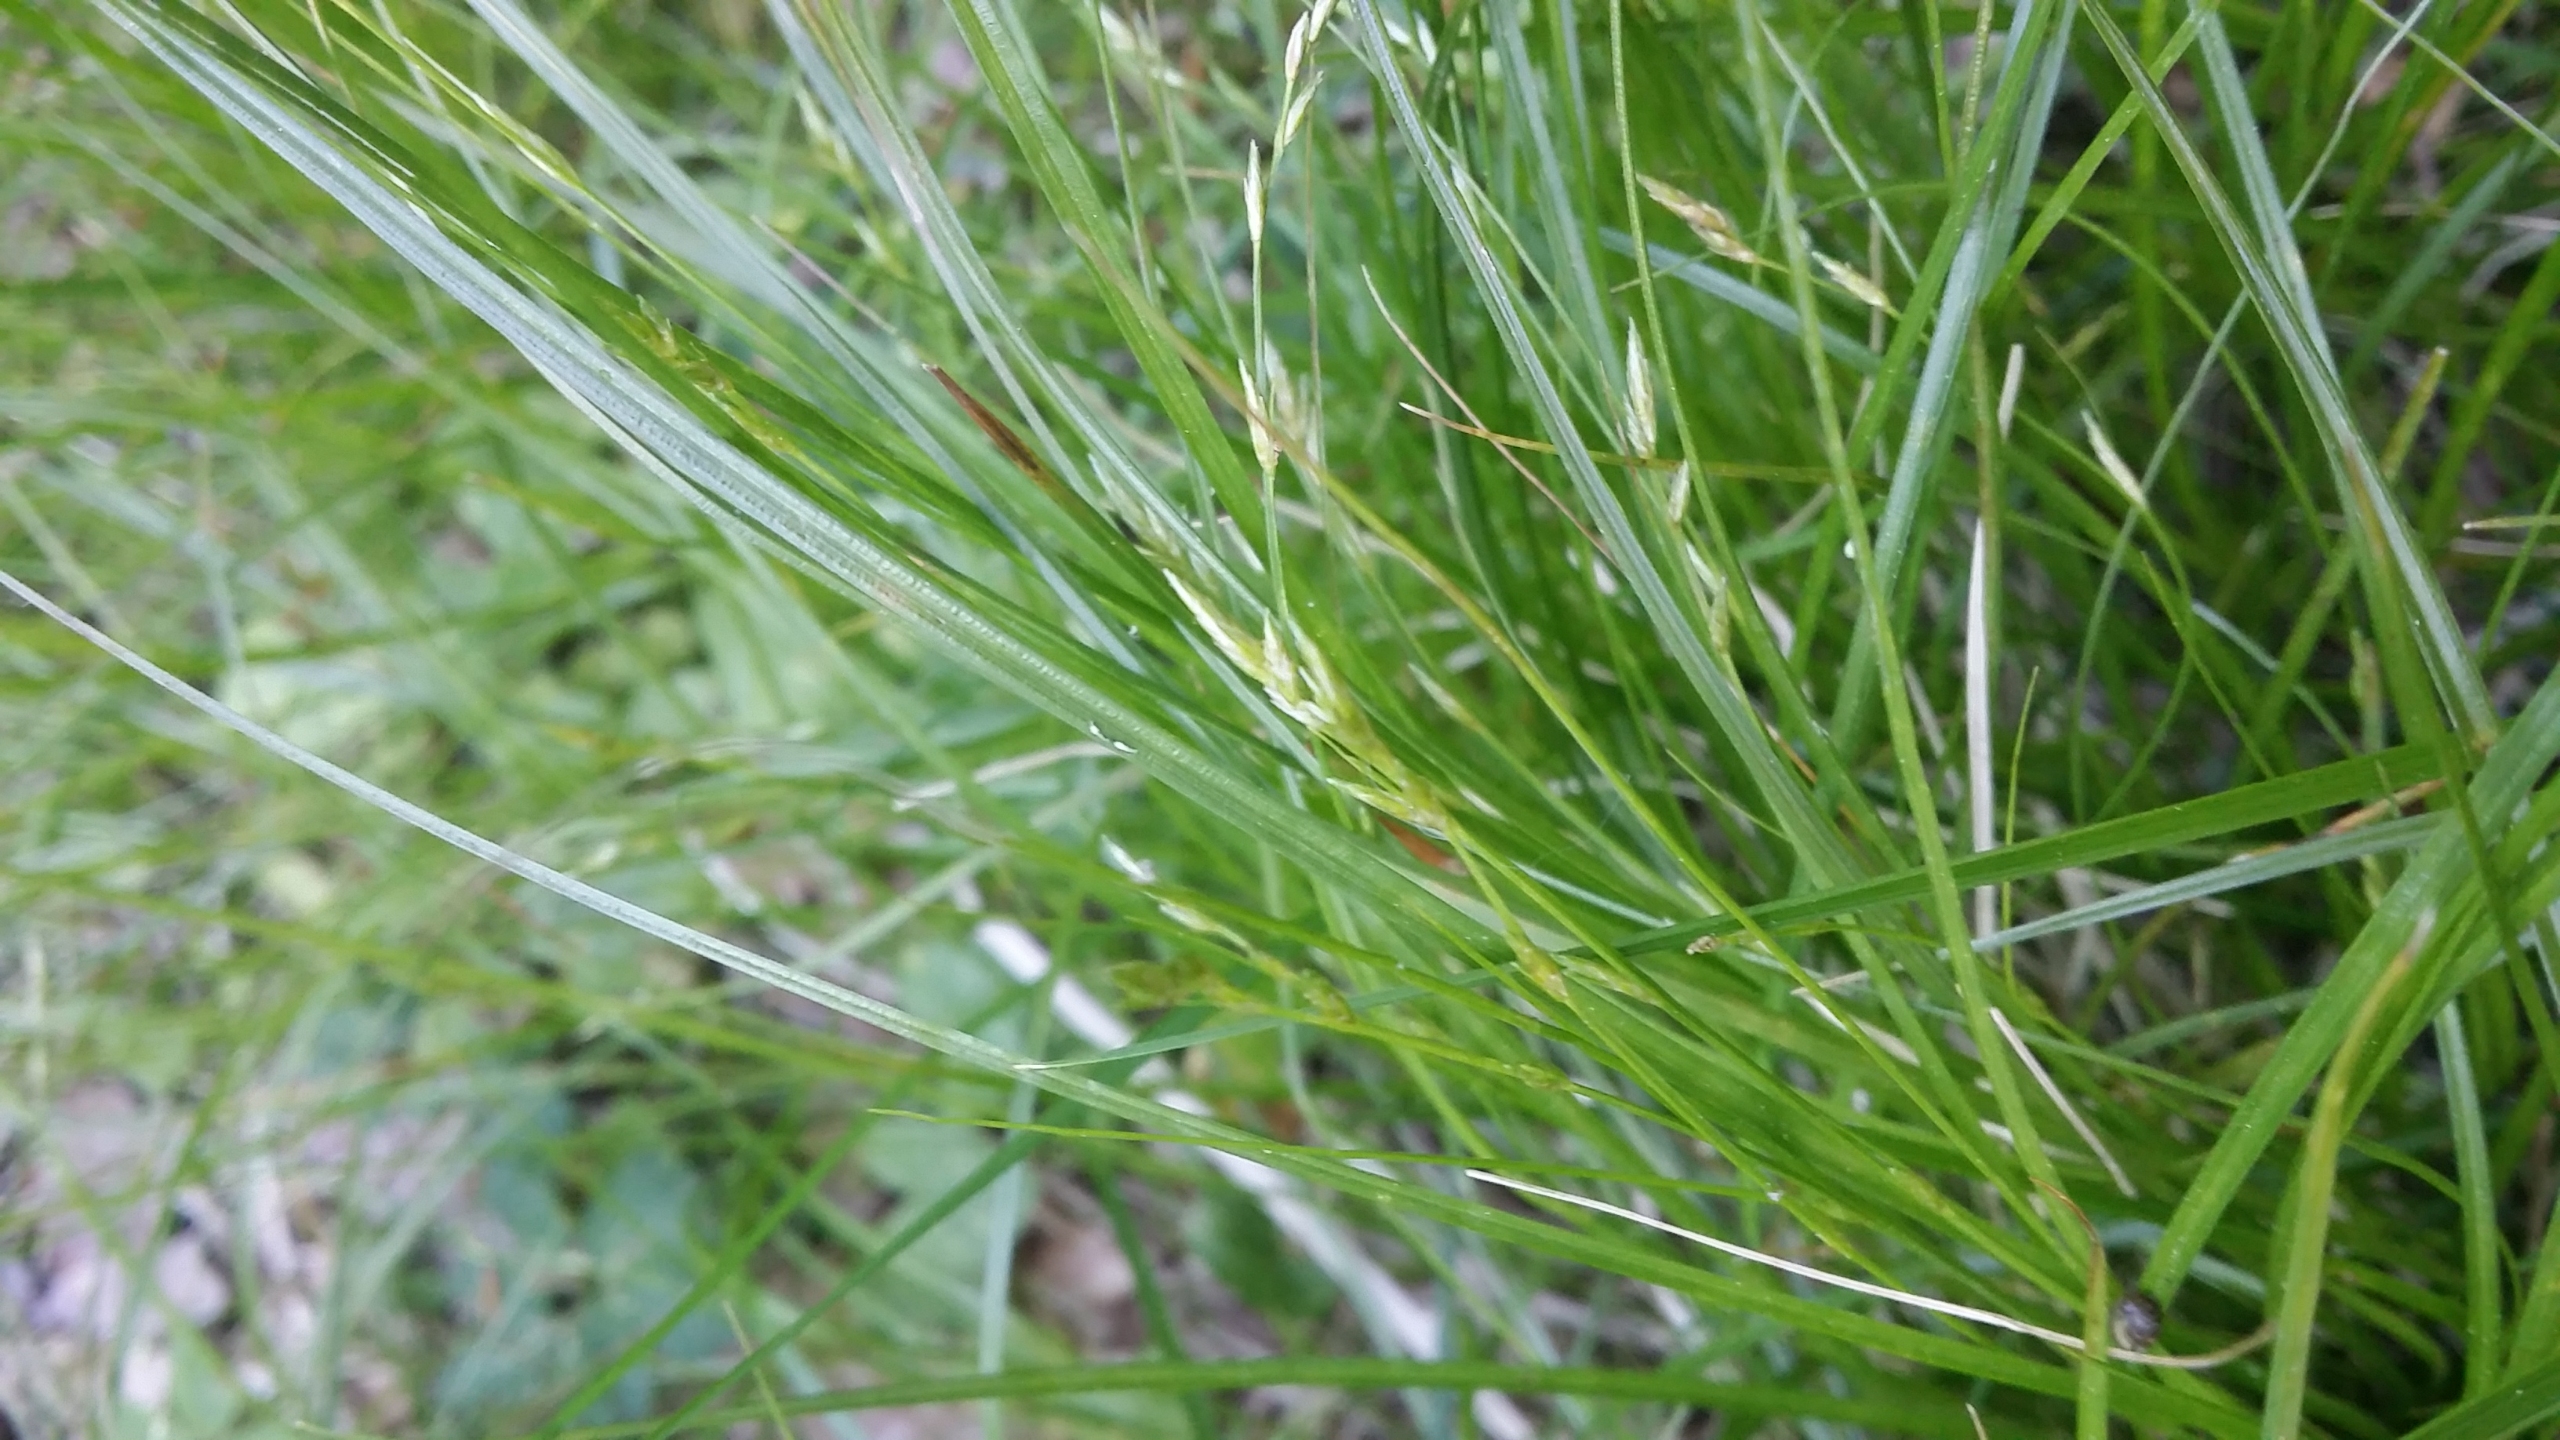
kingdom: Plantae
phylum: Tracheophyta
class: Liliopsida
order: Poales
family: Cyperaceae
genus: Carex
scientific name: Carex remota
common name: Akselblomstret star
